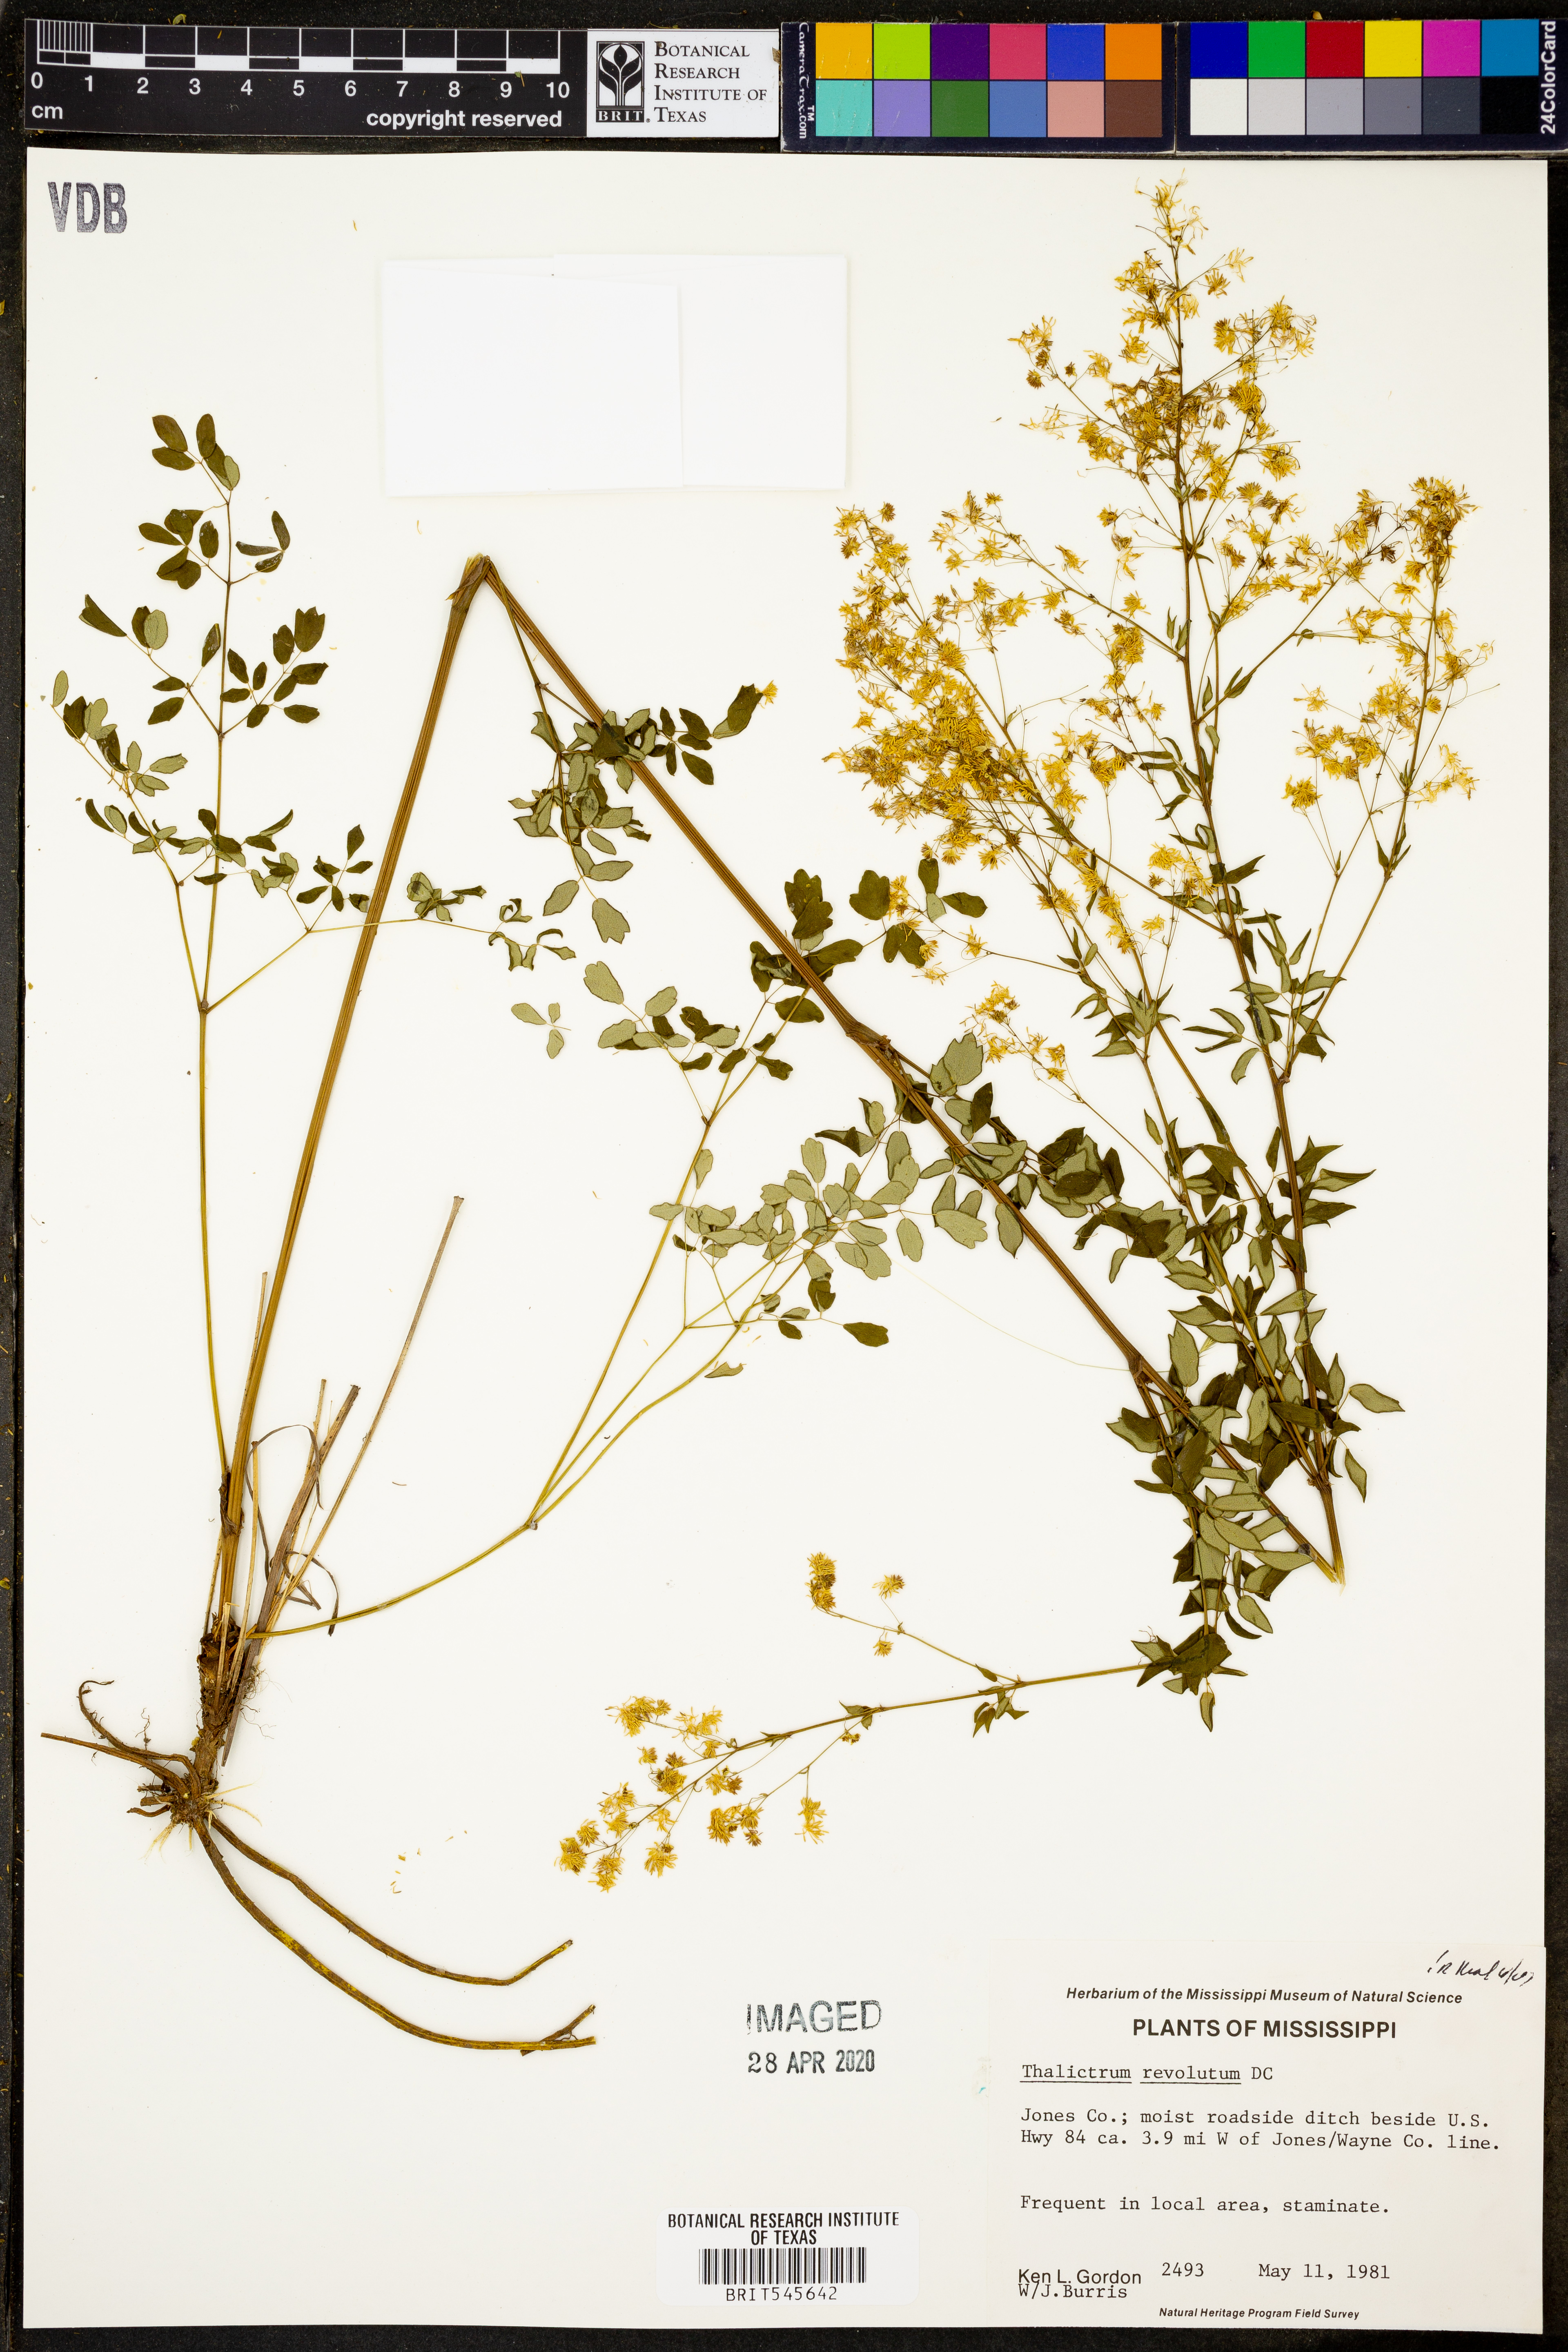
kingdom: Plantae
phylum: Tracheophyta
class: Magnoliopsida
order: Ranunculales
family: Ranunculaceae
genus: Thalictrum
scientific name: Thalictrum revolutum
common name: Waxy meadow-rue
